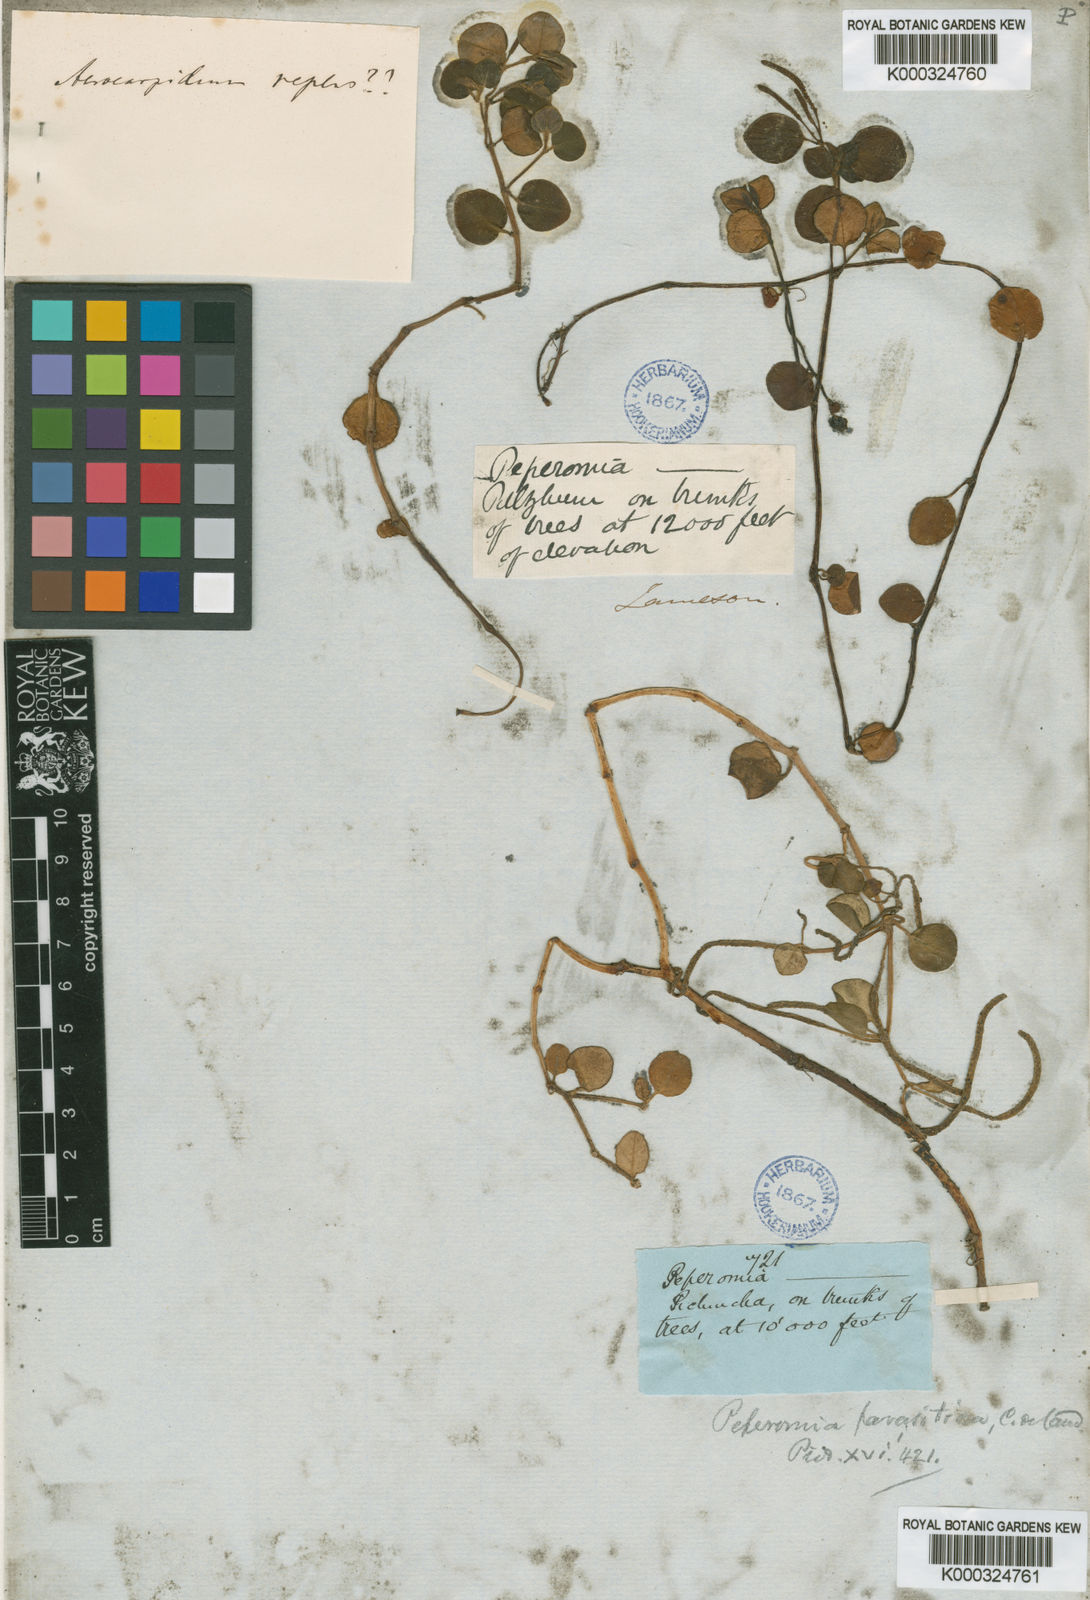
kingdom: Plantae
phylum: Tracheophyta
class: Magnoliopsida
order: Piperales
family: Piperaceae
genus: Peperomia
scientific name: Peperomia parasitica
